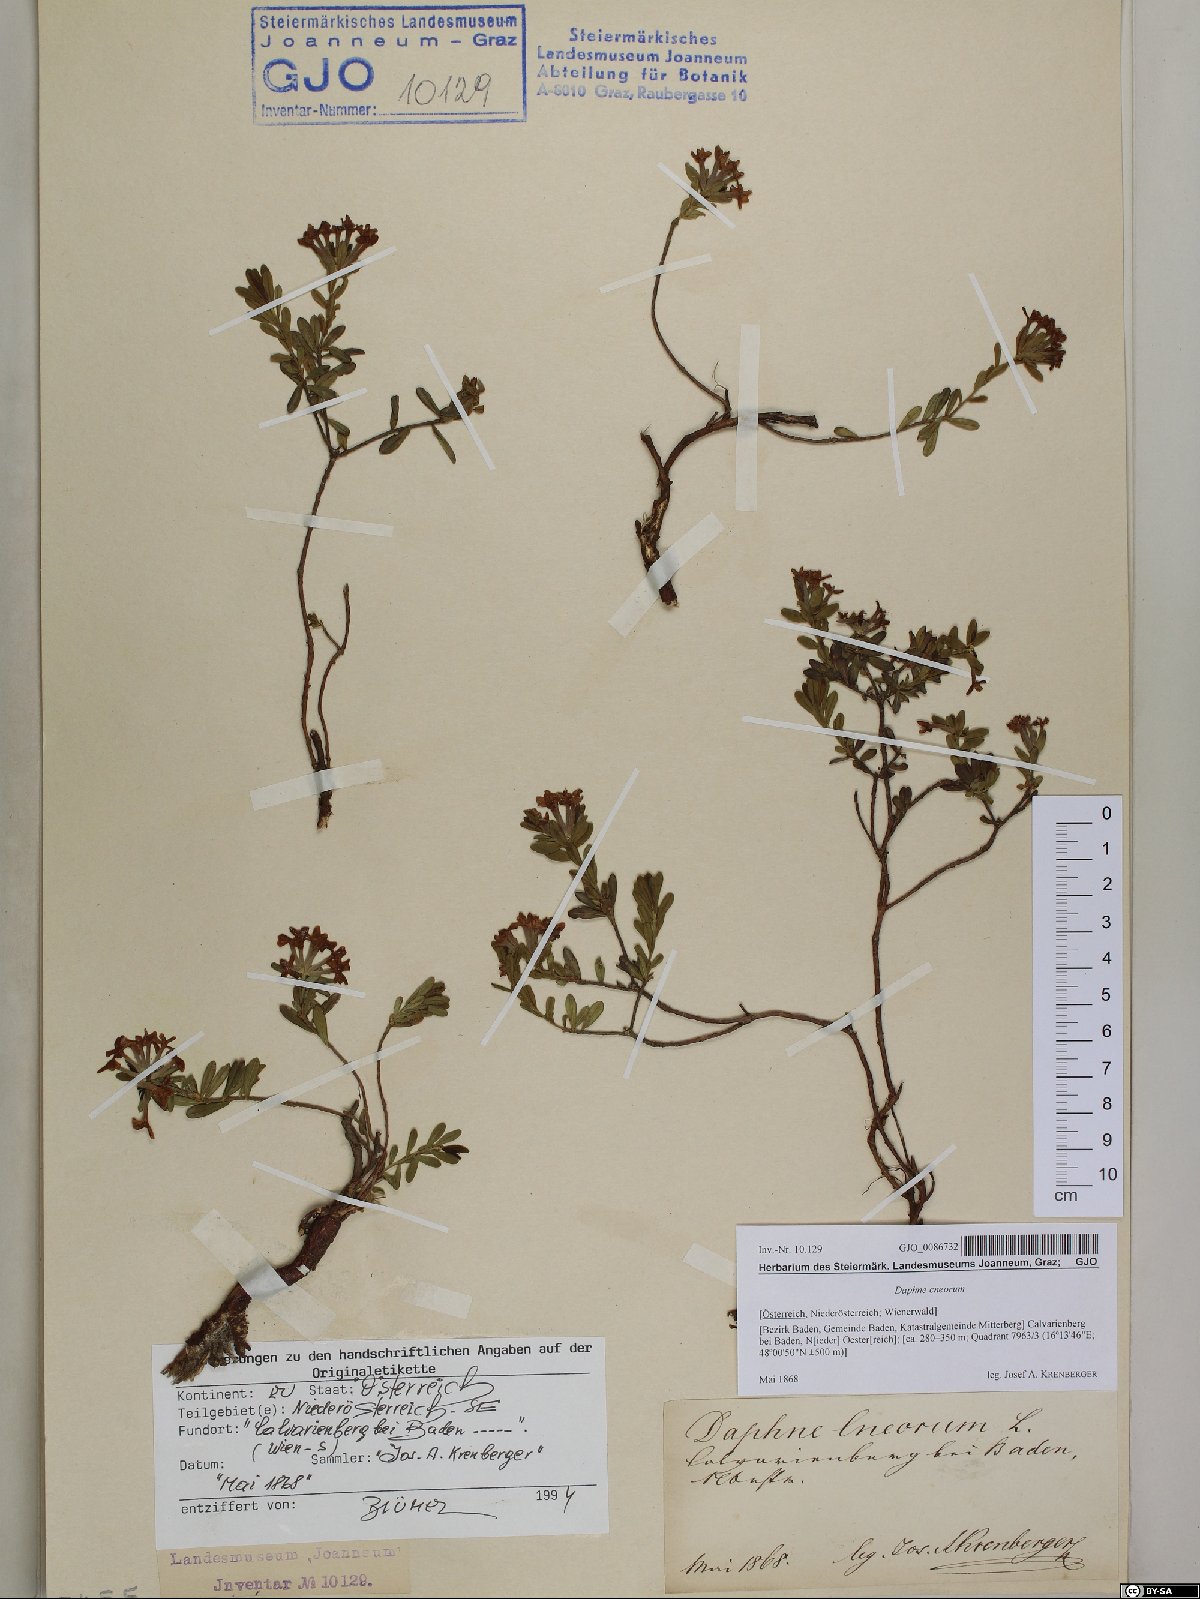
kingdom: Plantae
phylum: Tracheophyta
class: Magnoliopsida
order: Malvales
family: Thymelaeaceae
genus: Daphne
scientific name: Daphne cneorum
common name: Garland-flower
